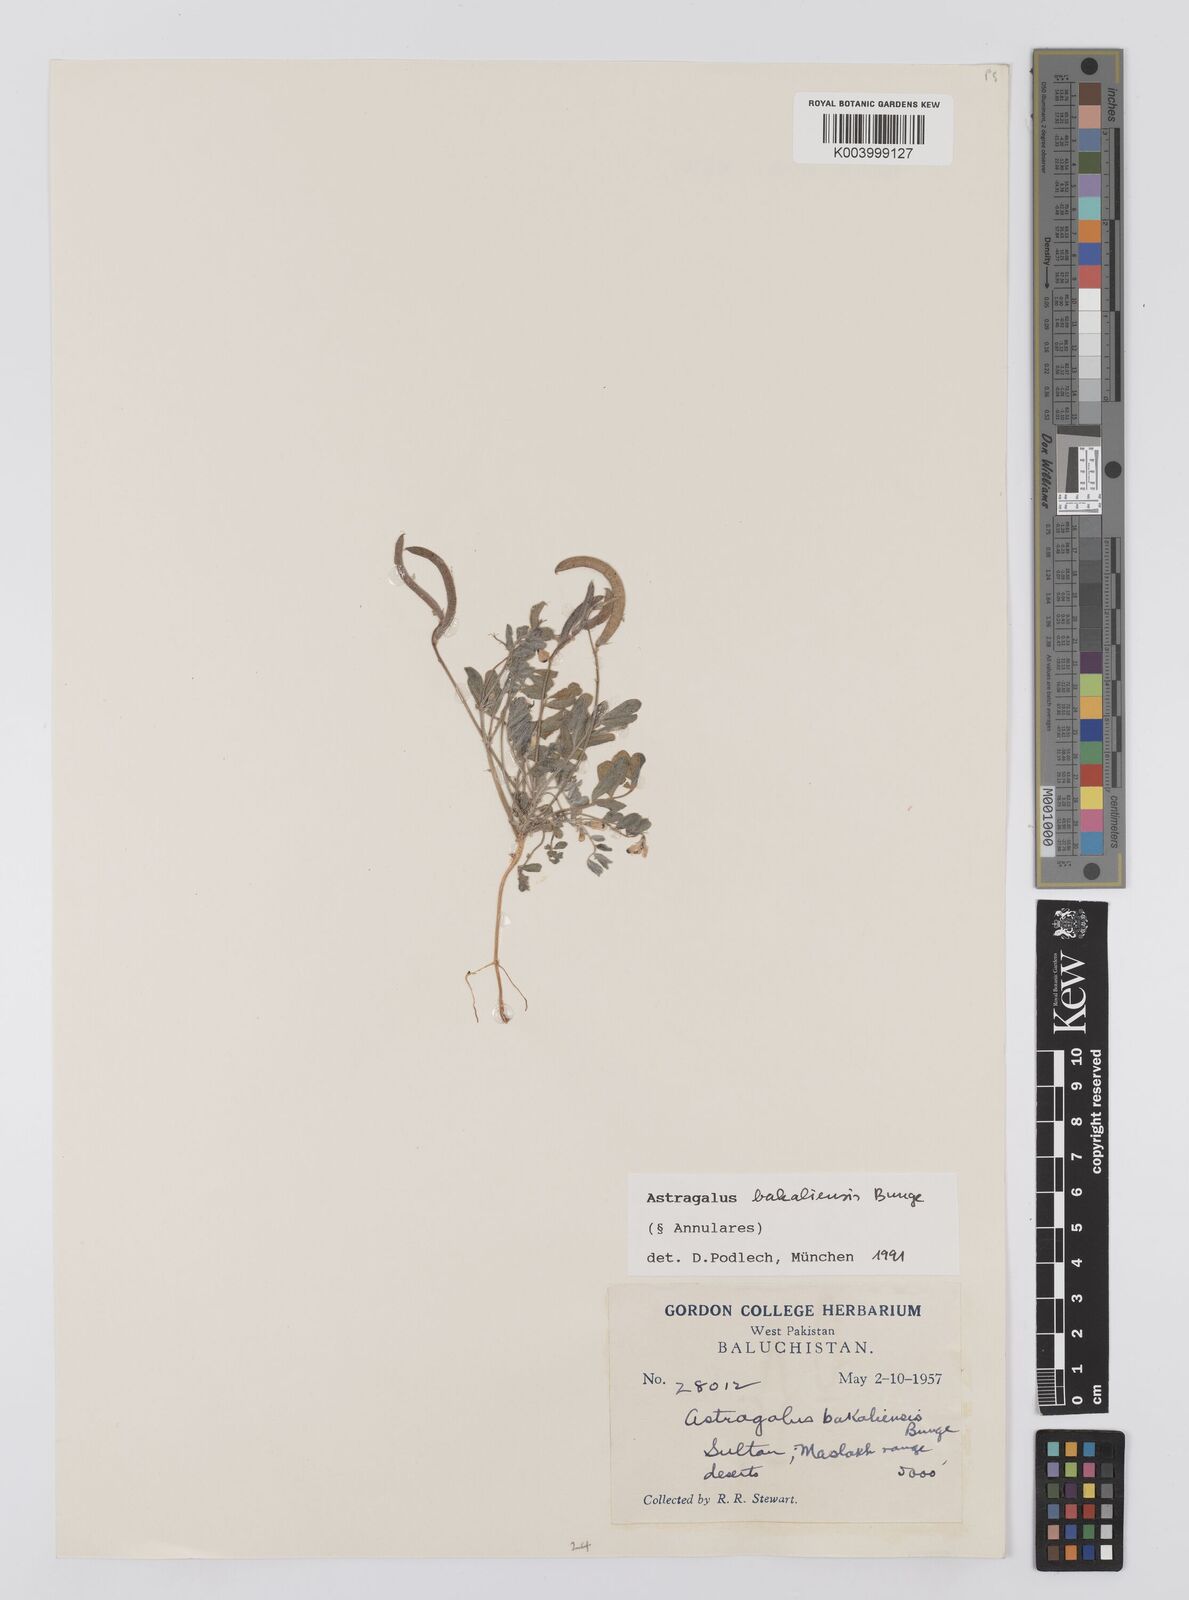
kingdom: Plantae
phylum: Tracheophyta
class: Magnoliopsida
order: Fabales
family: Fabaceae
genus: Astragalus
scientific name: Astragalus bakaliensis
